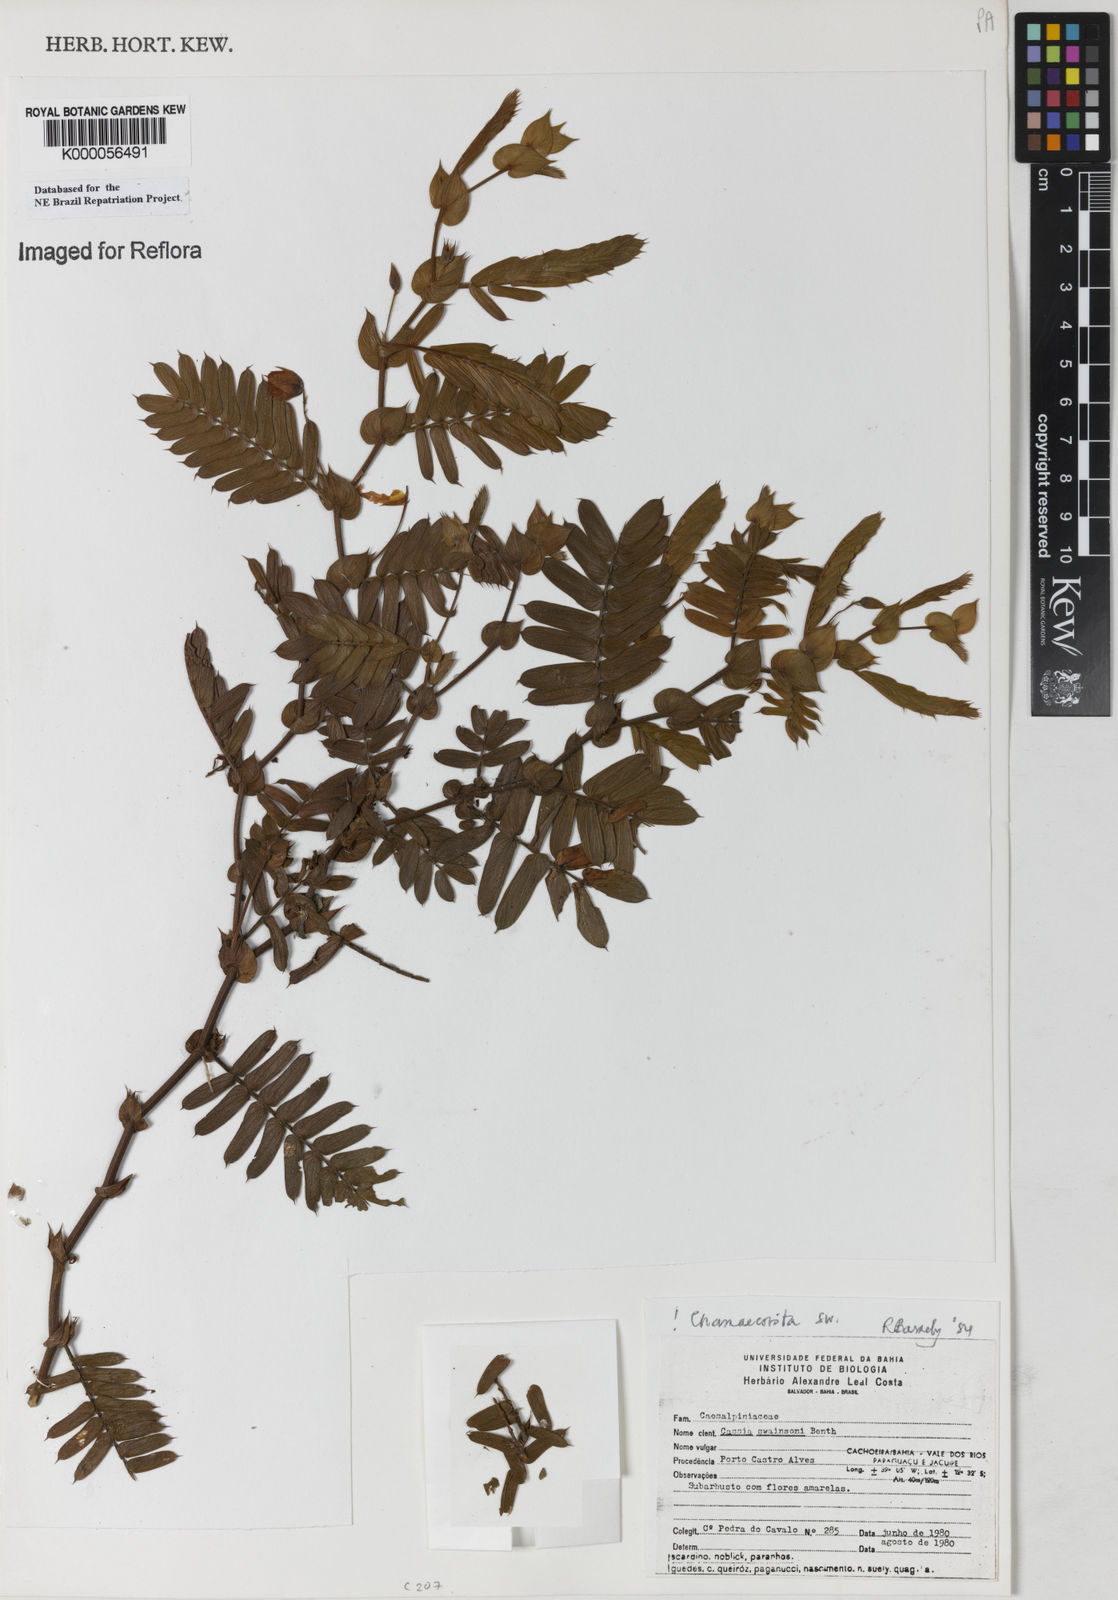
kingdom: Plantae
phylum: Tracheophyta
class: Magnoliopsida
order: Fabales
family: Fabaceae
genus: Chamaecrista
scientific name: Chamaecrista swainsonii
